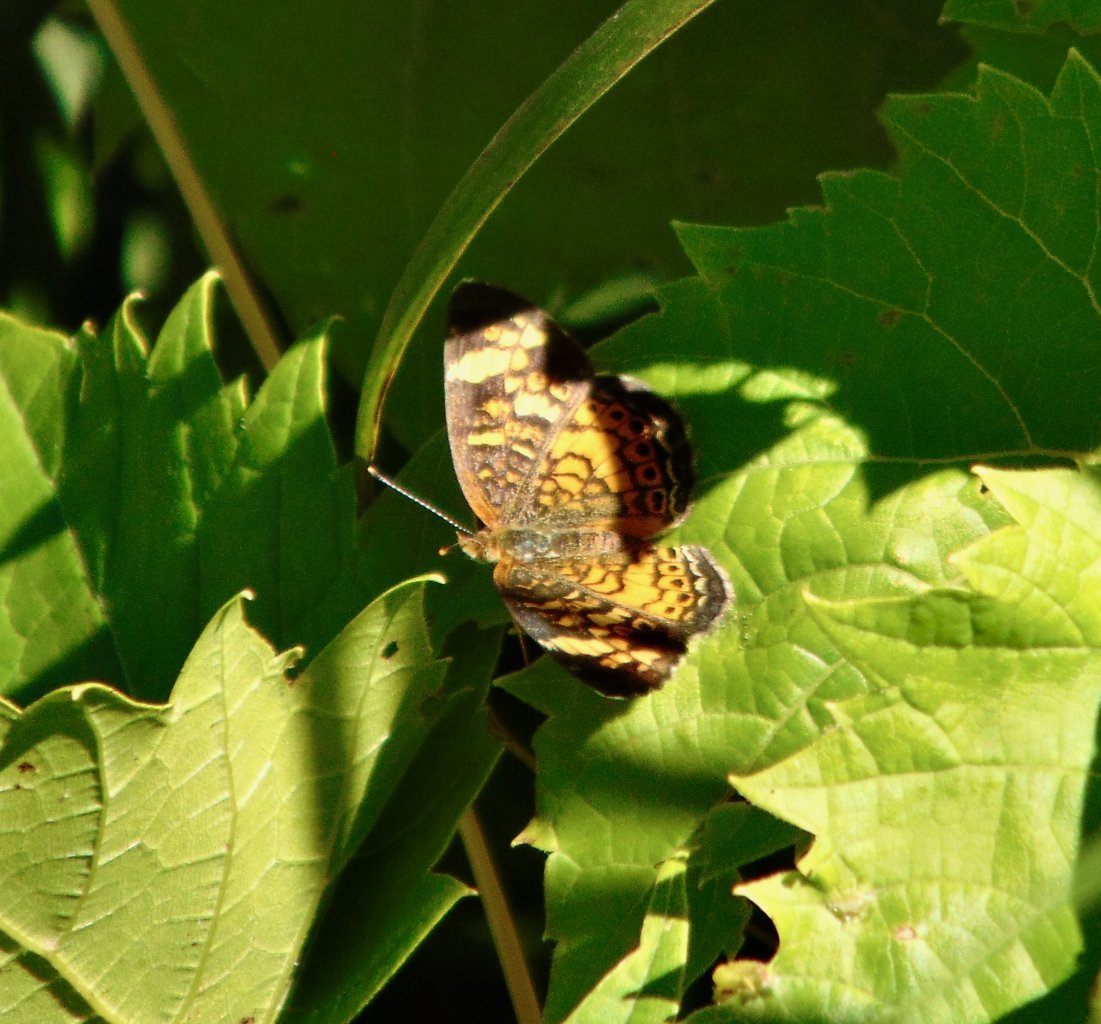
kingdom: Animalia
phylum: Arthropoda
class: Insecta
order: Lepidoptera
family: Nymphalidae
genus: Phyciodes
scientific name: Phyciodes tharos
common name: Pearl Crescent
